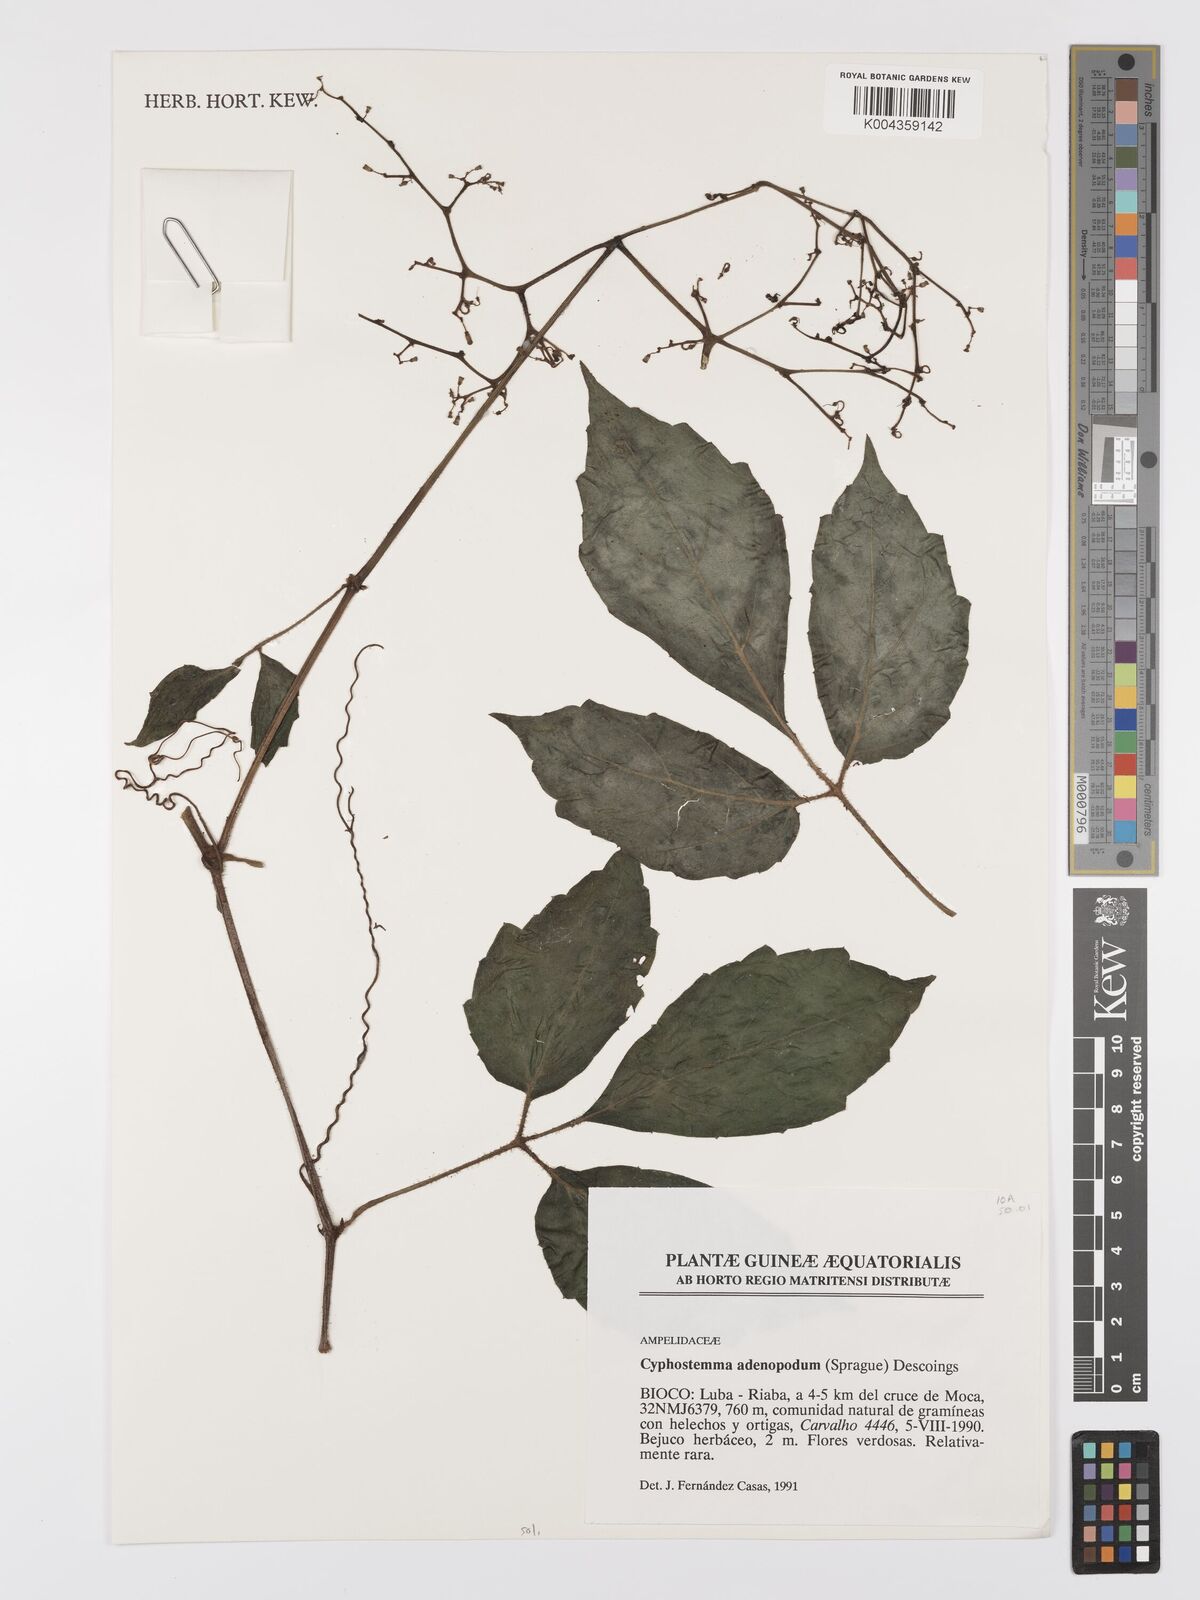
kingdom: Plantae
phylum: Tracheophyta
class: Magnoliopsida
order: Vitales
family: Vitaceae
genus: Cyphostemma
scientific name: Cyphostemma adenopodum
